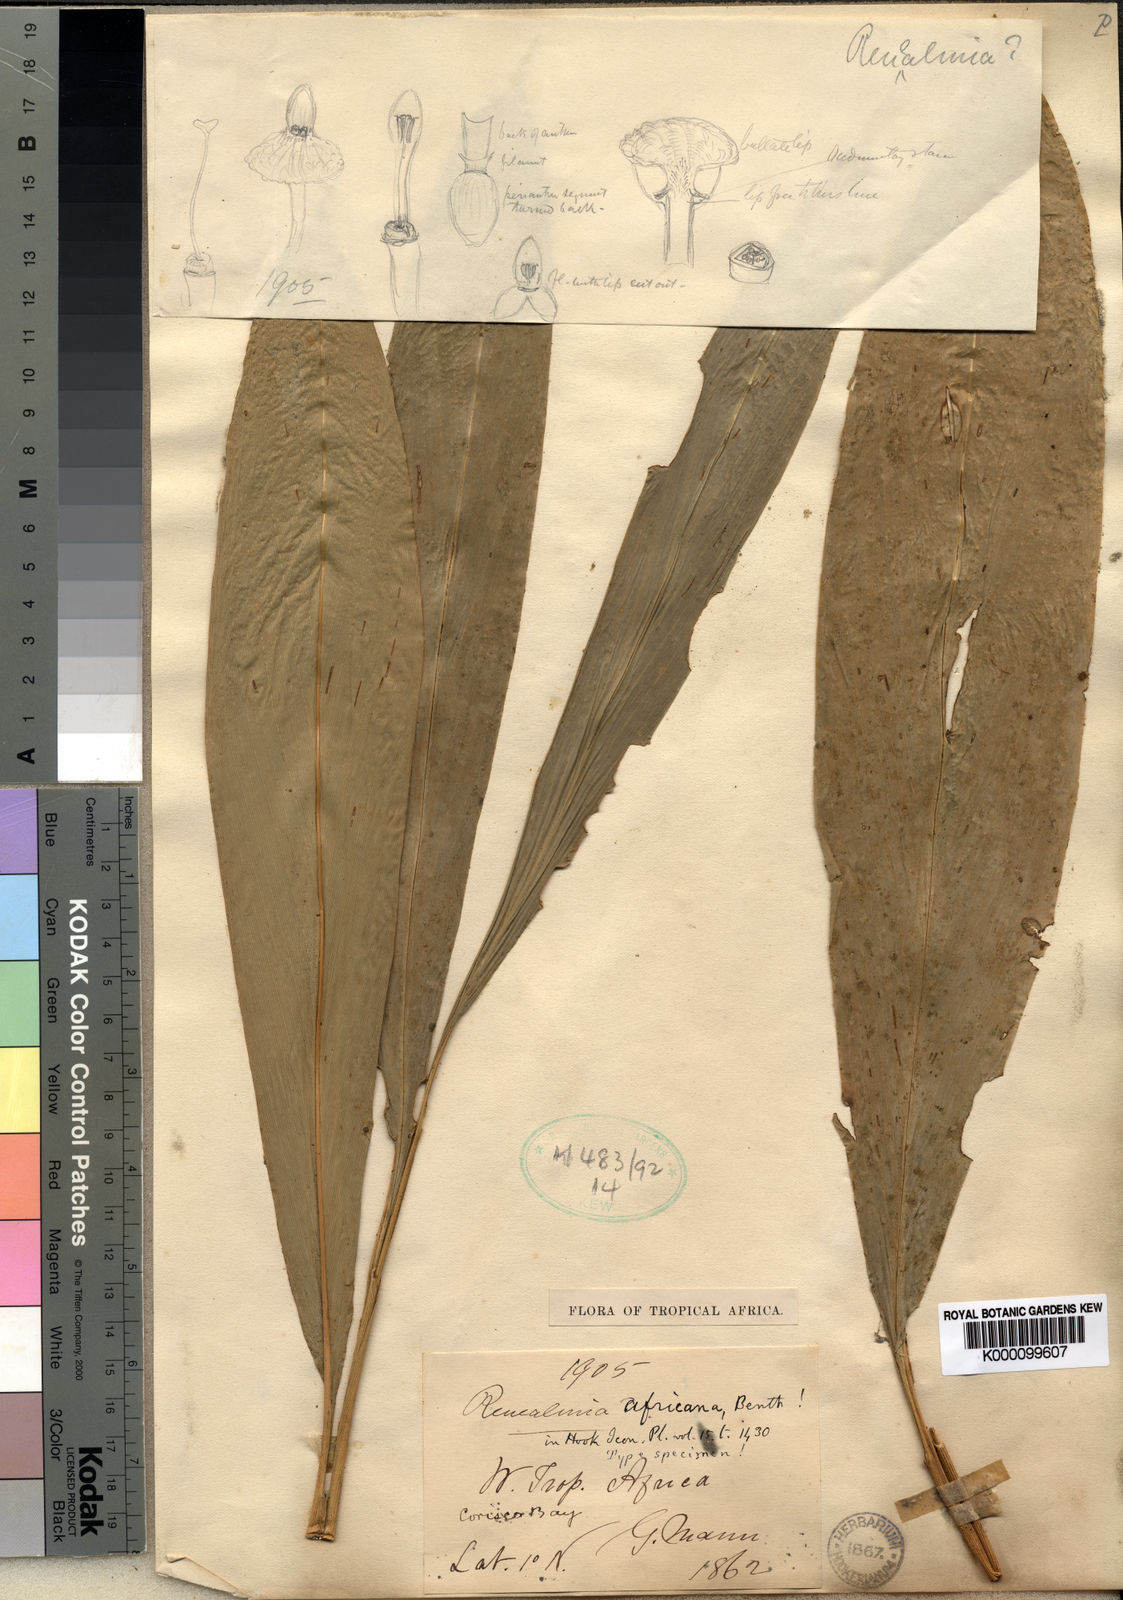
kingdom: Plantae
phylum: Tracheophyta
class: Liliopsida
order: Zingiberales
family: Zingiberaceae
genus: Renealmia
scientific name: Renealmia africana
